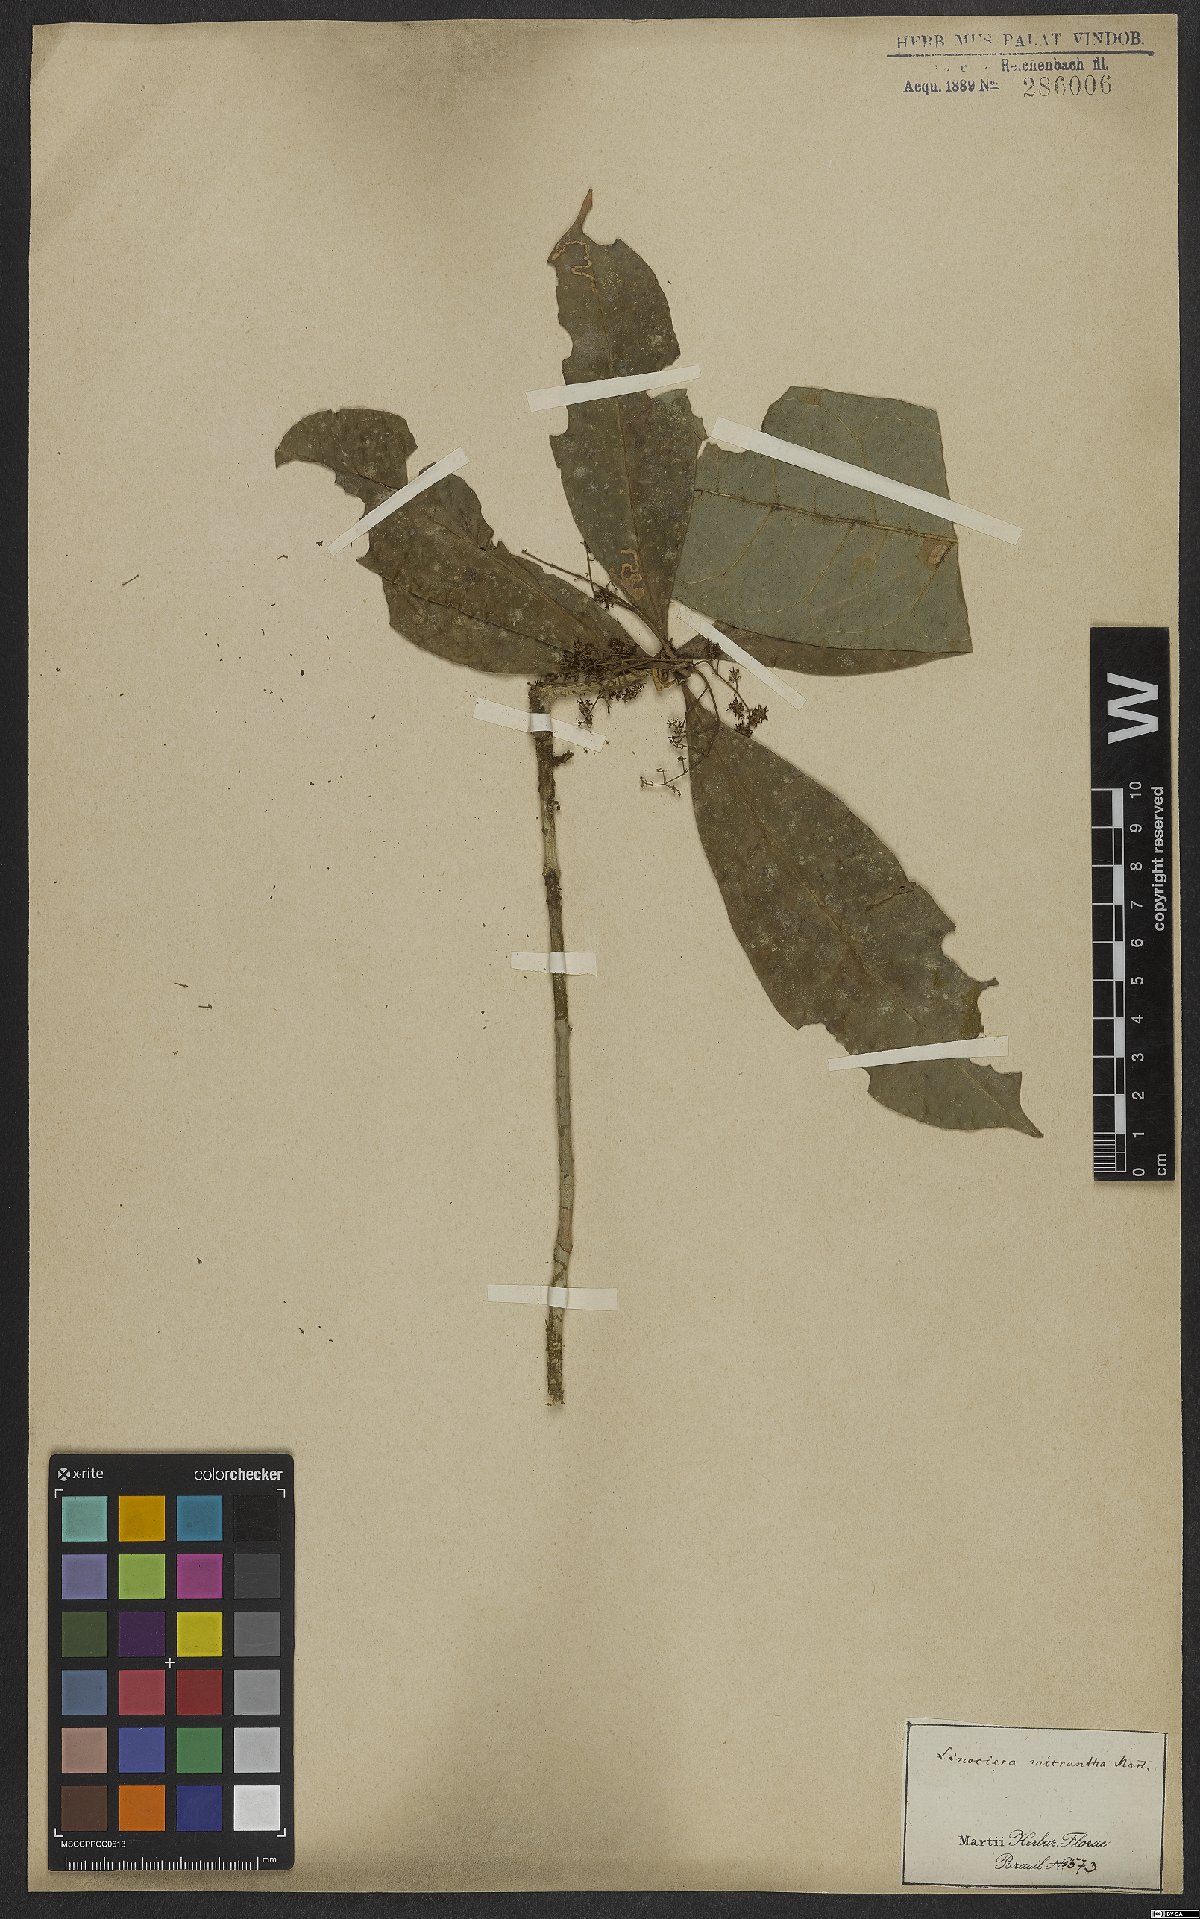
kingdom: Plantae
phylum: Tracheophyta
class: Magnoliopsida
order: Lamiales
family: Oleaceae
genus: Chionanthus
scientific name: Chionanthus micranthus
